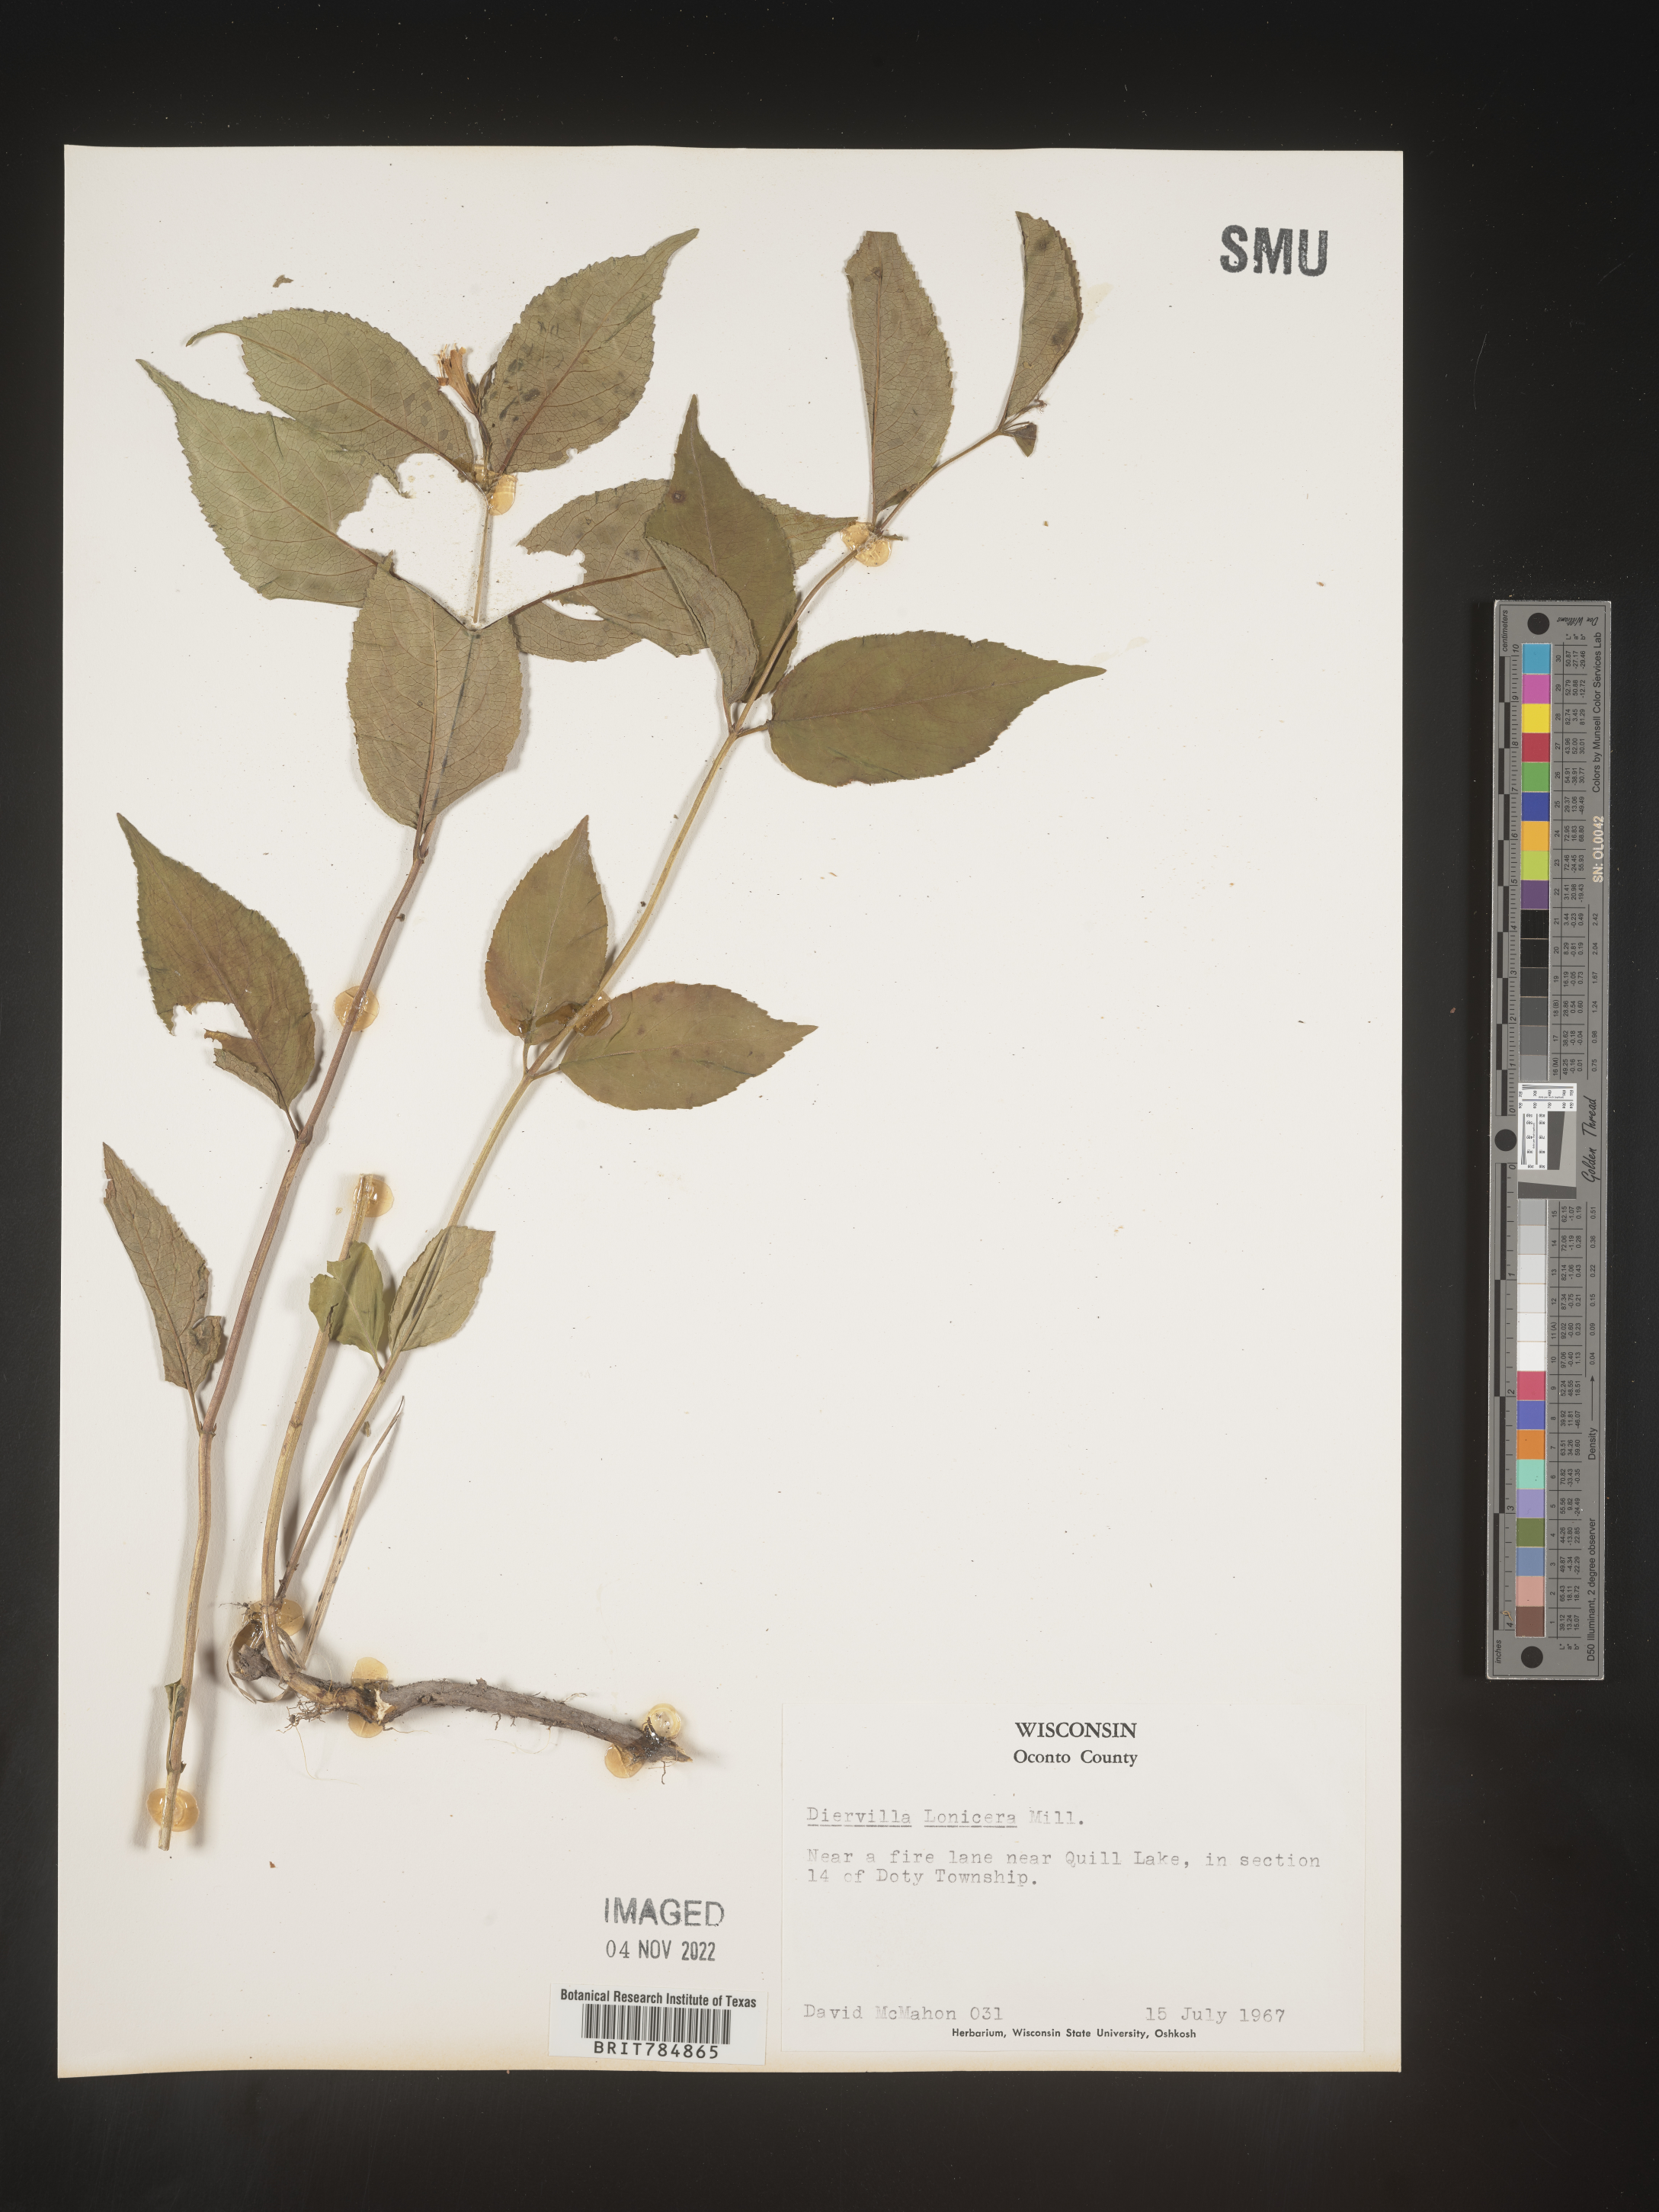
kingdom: Plantae
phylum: Tracheophyta
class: Magnoliopsida
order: Dipsacales
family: Caprifoliaceae
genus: Diervilla
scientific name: Diervilla lonicera
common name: Bush-honeysuckle
